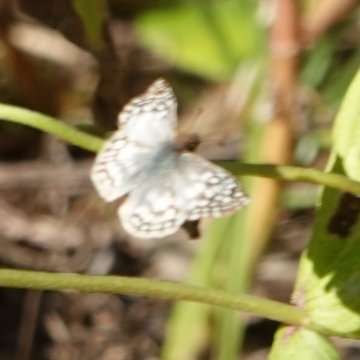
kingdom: Animalia
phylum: Arthropoda
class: Insecta
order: Lepidoptera
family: Hesperiidae
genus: Pyrgus
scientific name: Pyrgus oileus
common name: Tropical Checkered Skipper
